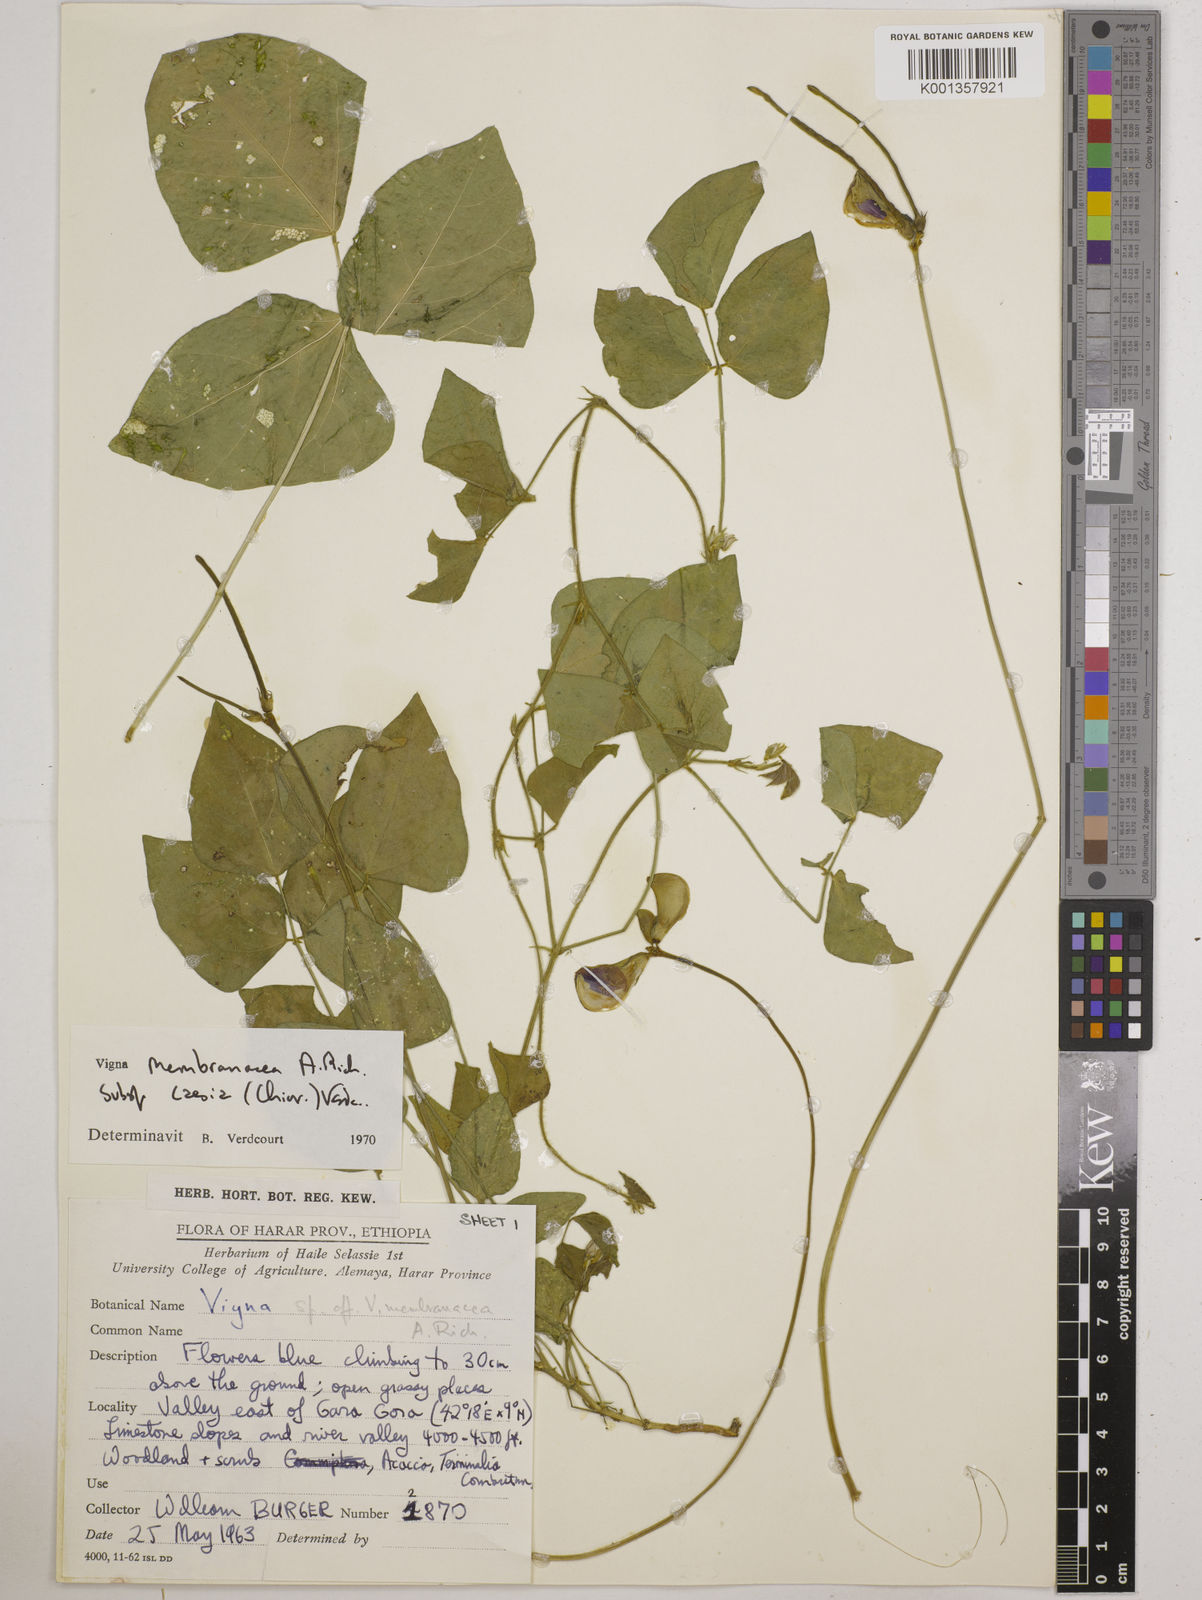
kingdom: Plantae
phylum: Tracheophyta
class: Magnoliopsida
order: Fabales
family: Fabaceae
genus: Vigna
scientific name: Vigna
